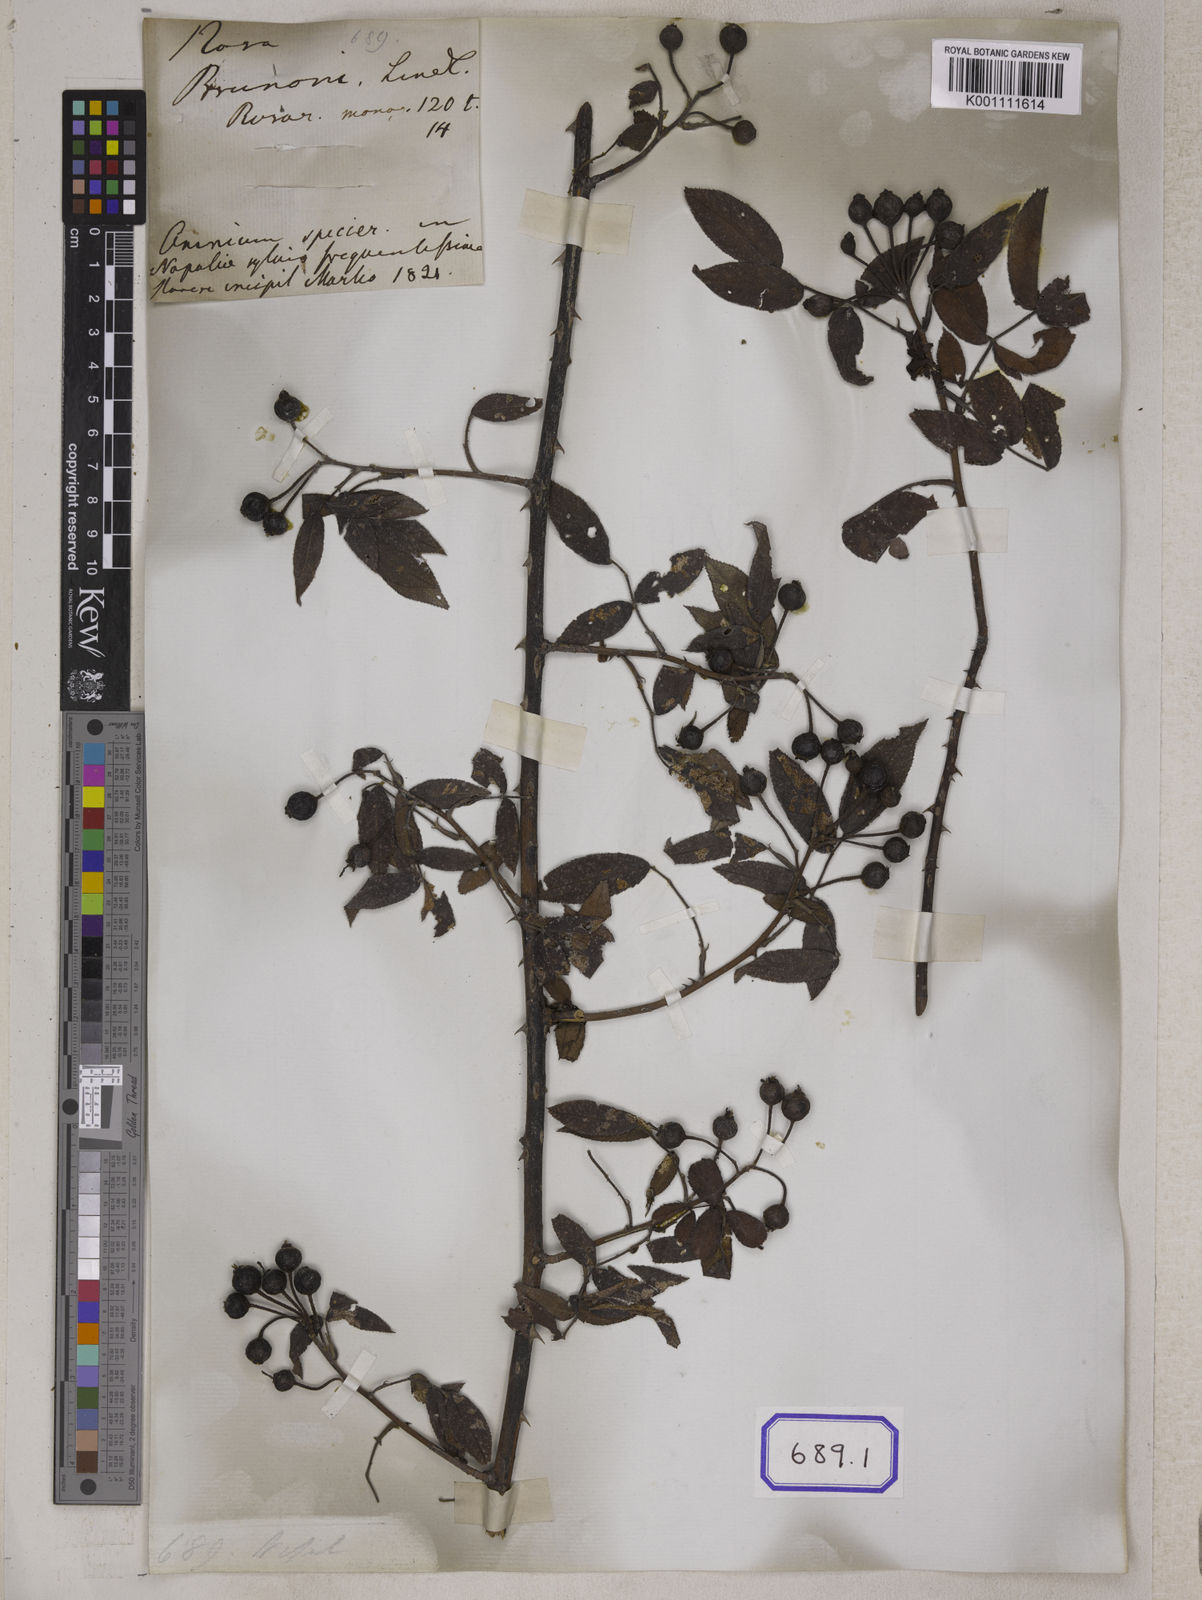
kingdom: Plantae
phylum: Tracheophyta
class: Magnoliopsida
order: Rosales
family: Rosaceae
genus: Rosa
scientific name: Rosa
